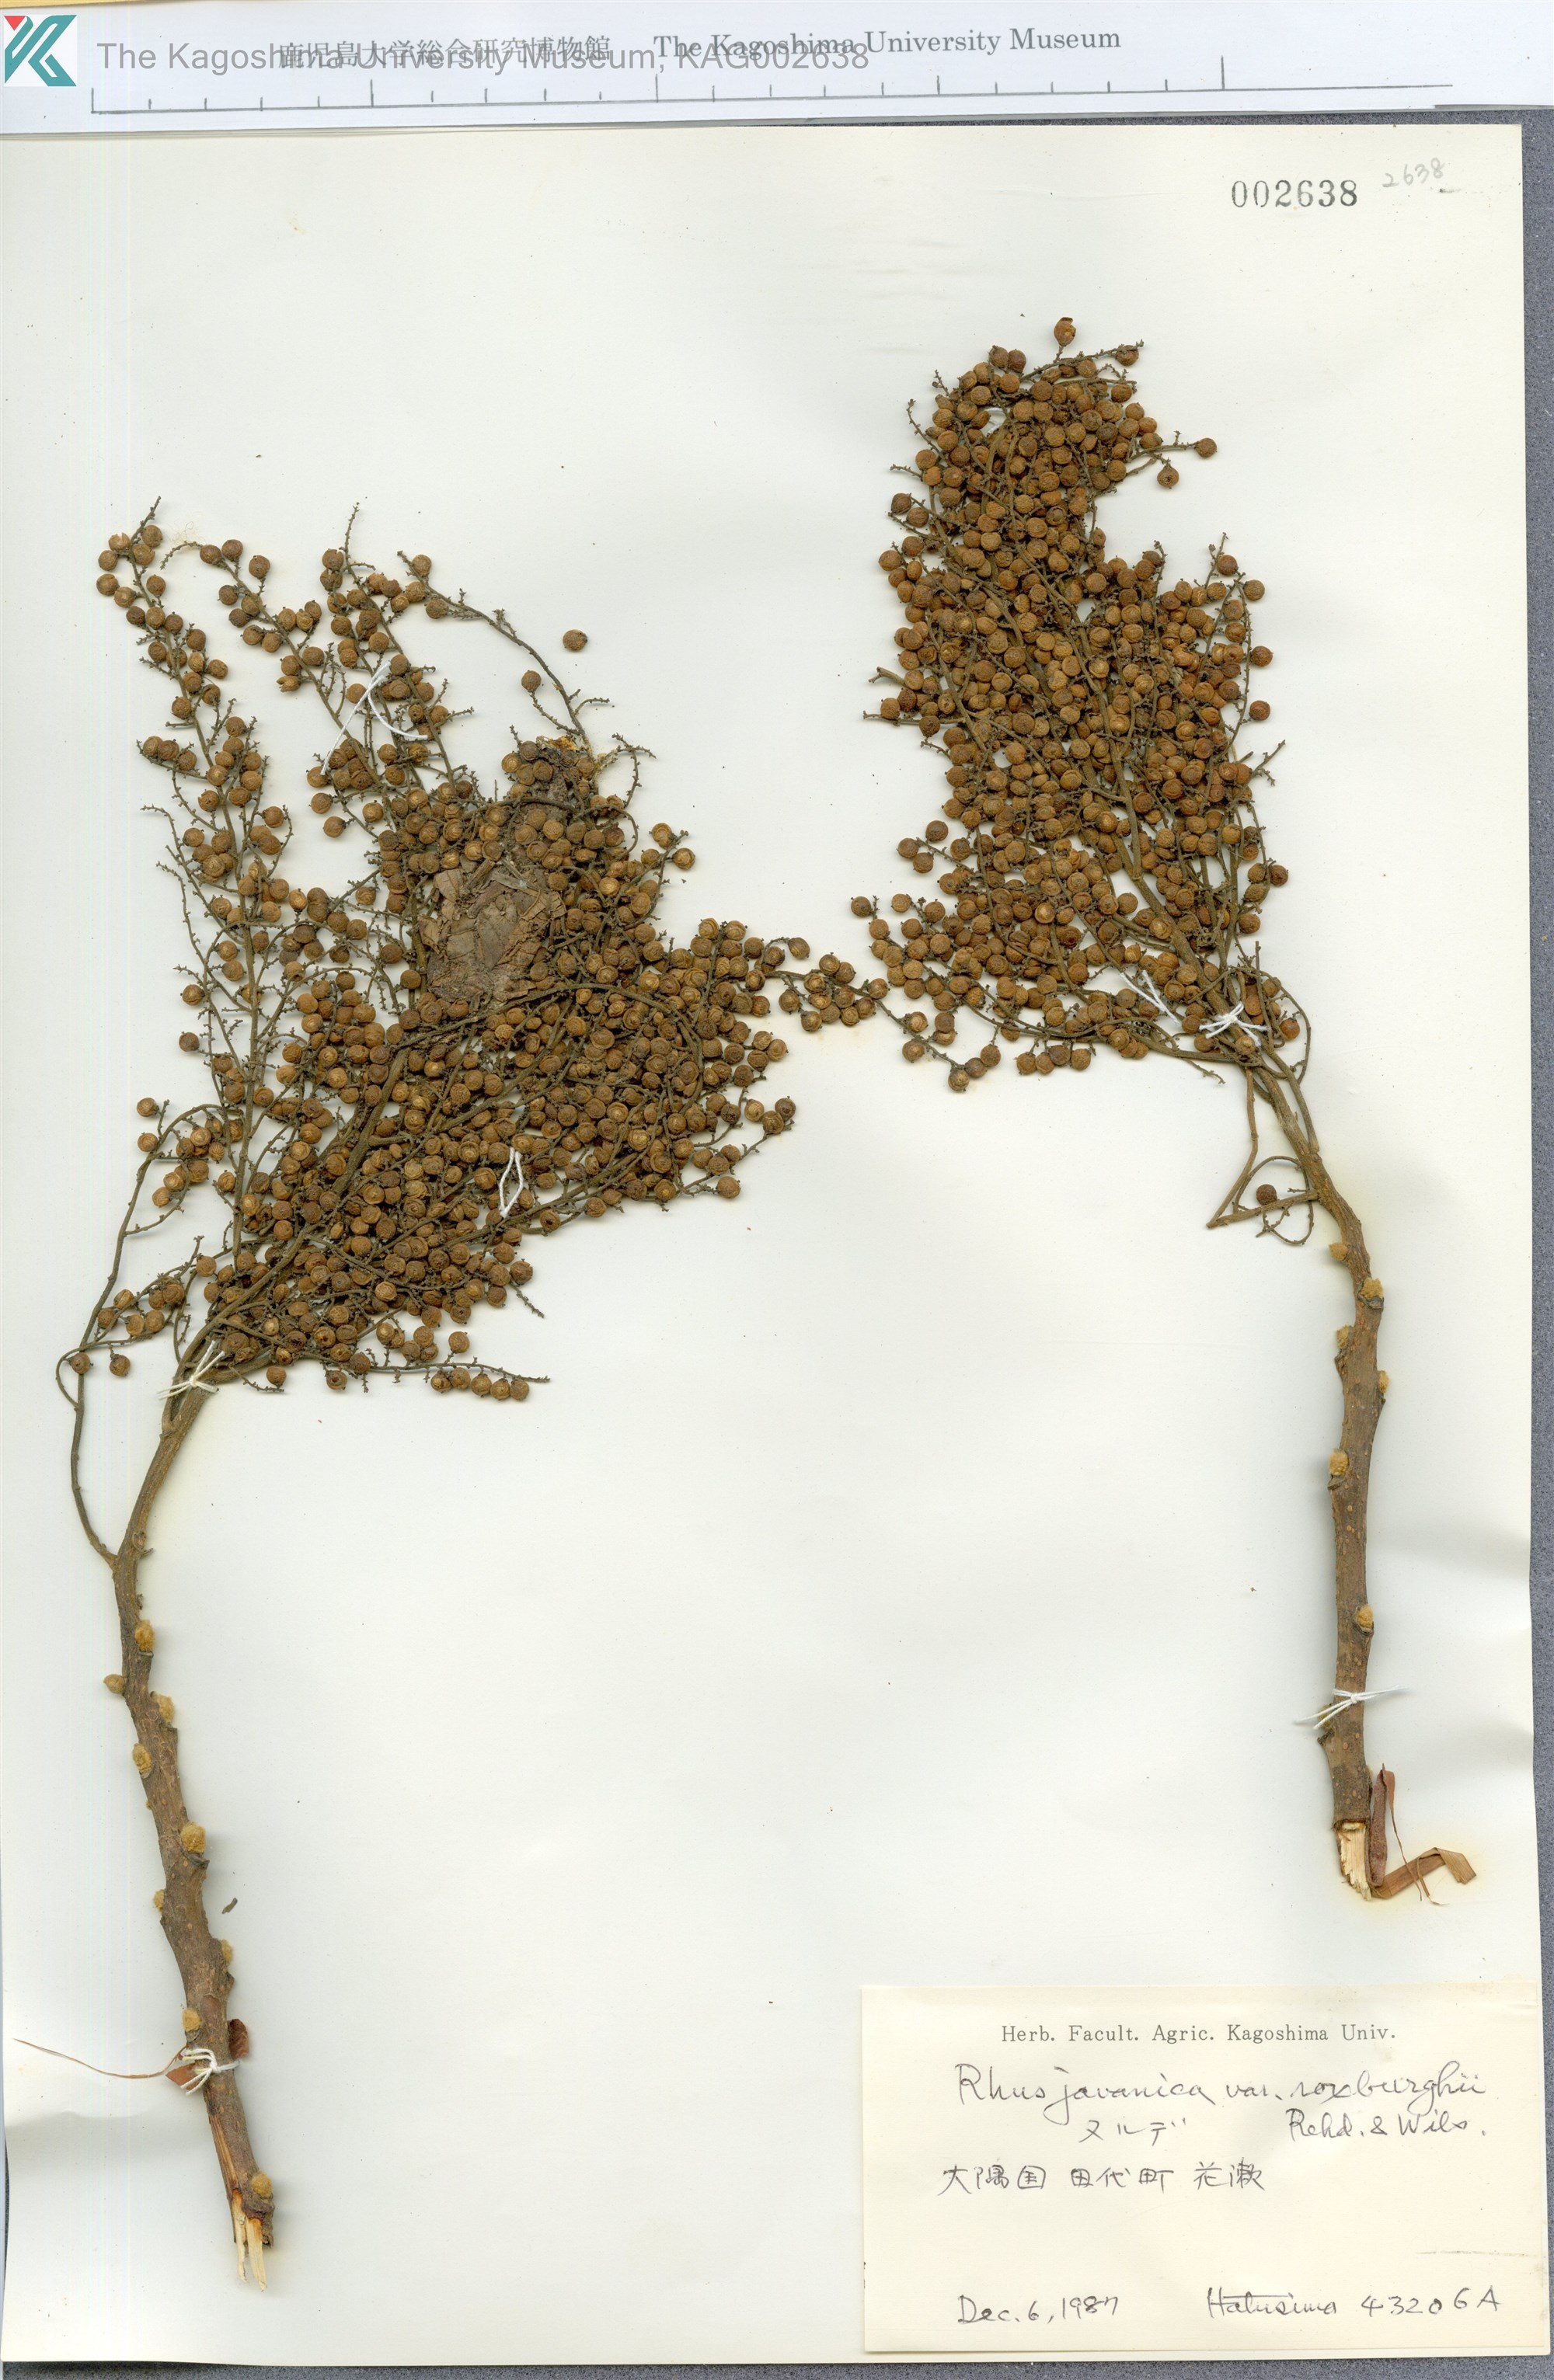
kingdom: Plantae
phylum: Tracheophyta
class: Magnoliopsida
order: Sapindales
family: Anacardiaceae
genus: Rhus
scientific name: Rhus chinensis
